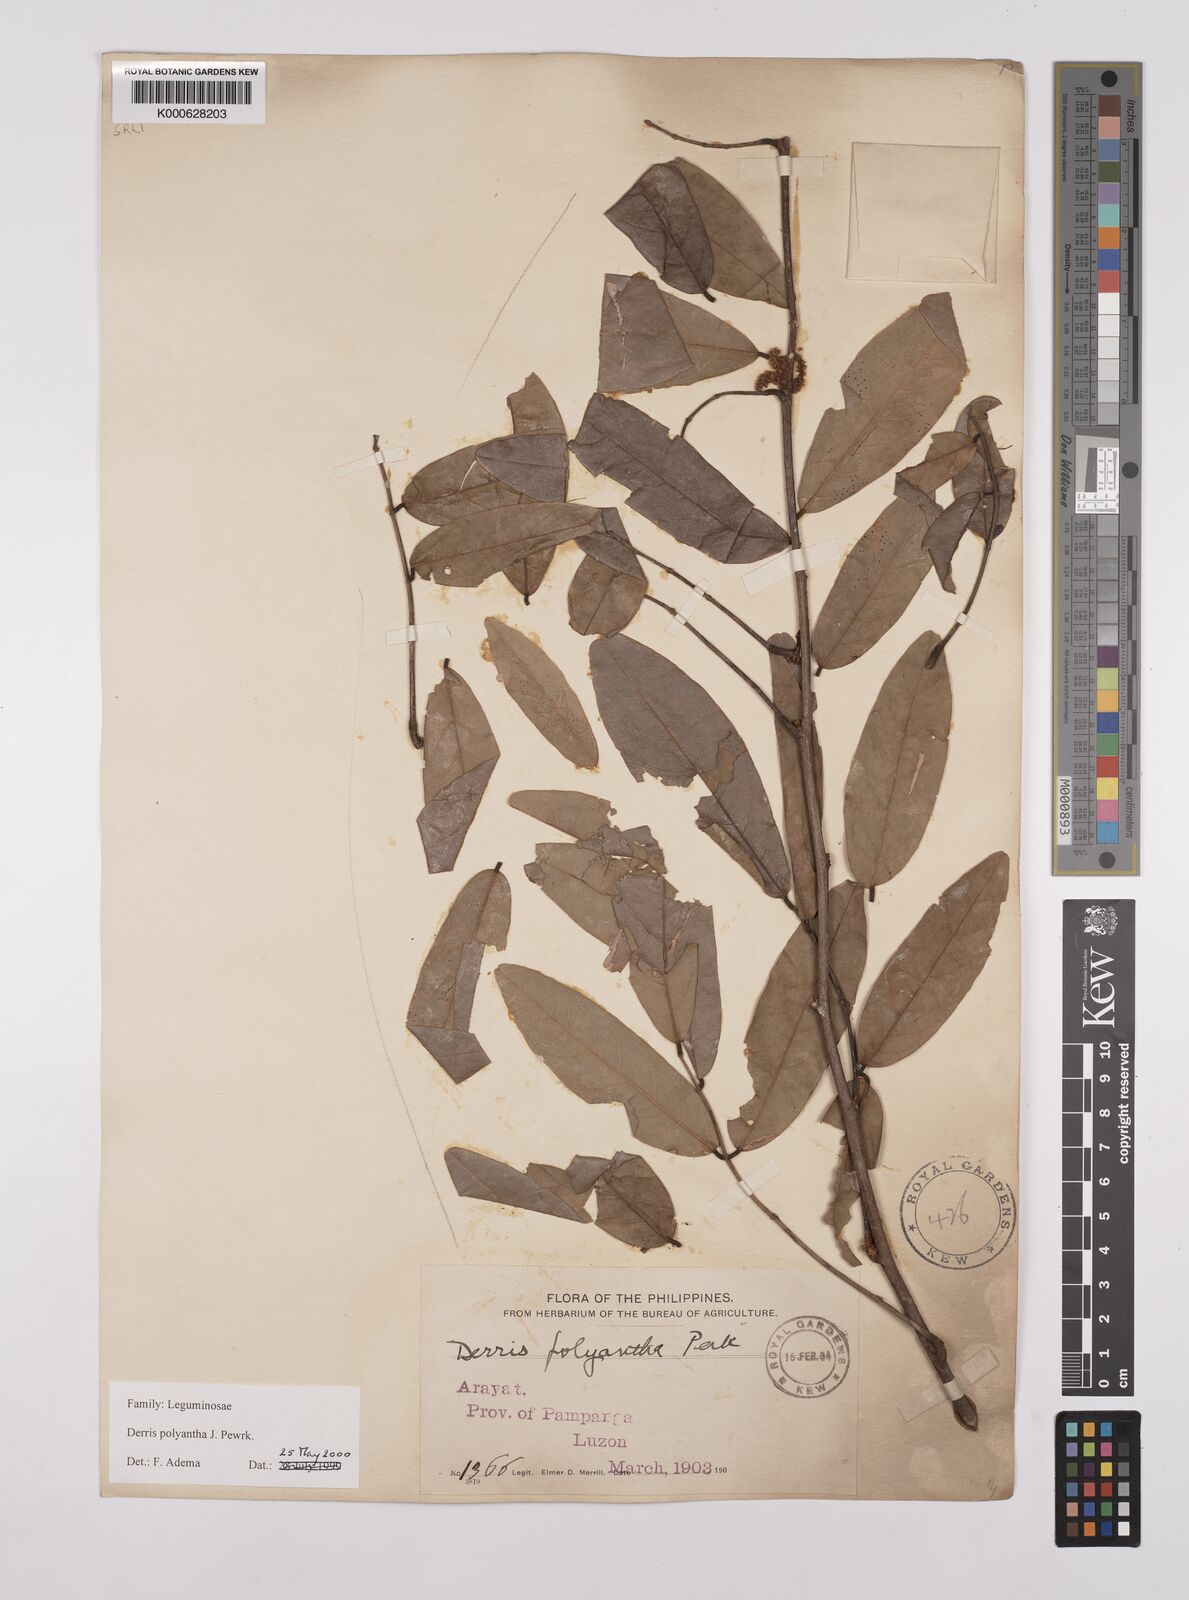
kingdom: Plantae
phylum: Tracheophyta
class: Magnoliopsida
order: Fabales
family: Fabaceae
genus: Derris
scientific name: Derris polyantha
